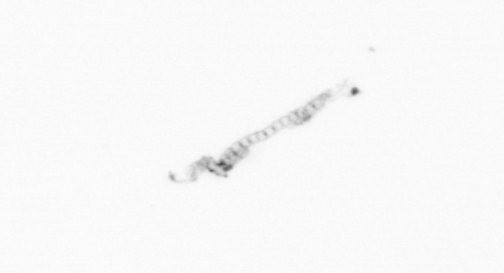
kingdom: Chromista
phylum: Ochrophyta
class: Bacillariophyceae
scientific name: Bacillariophyceae
